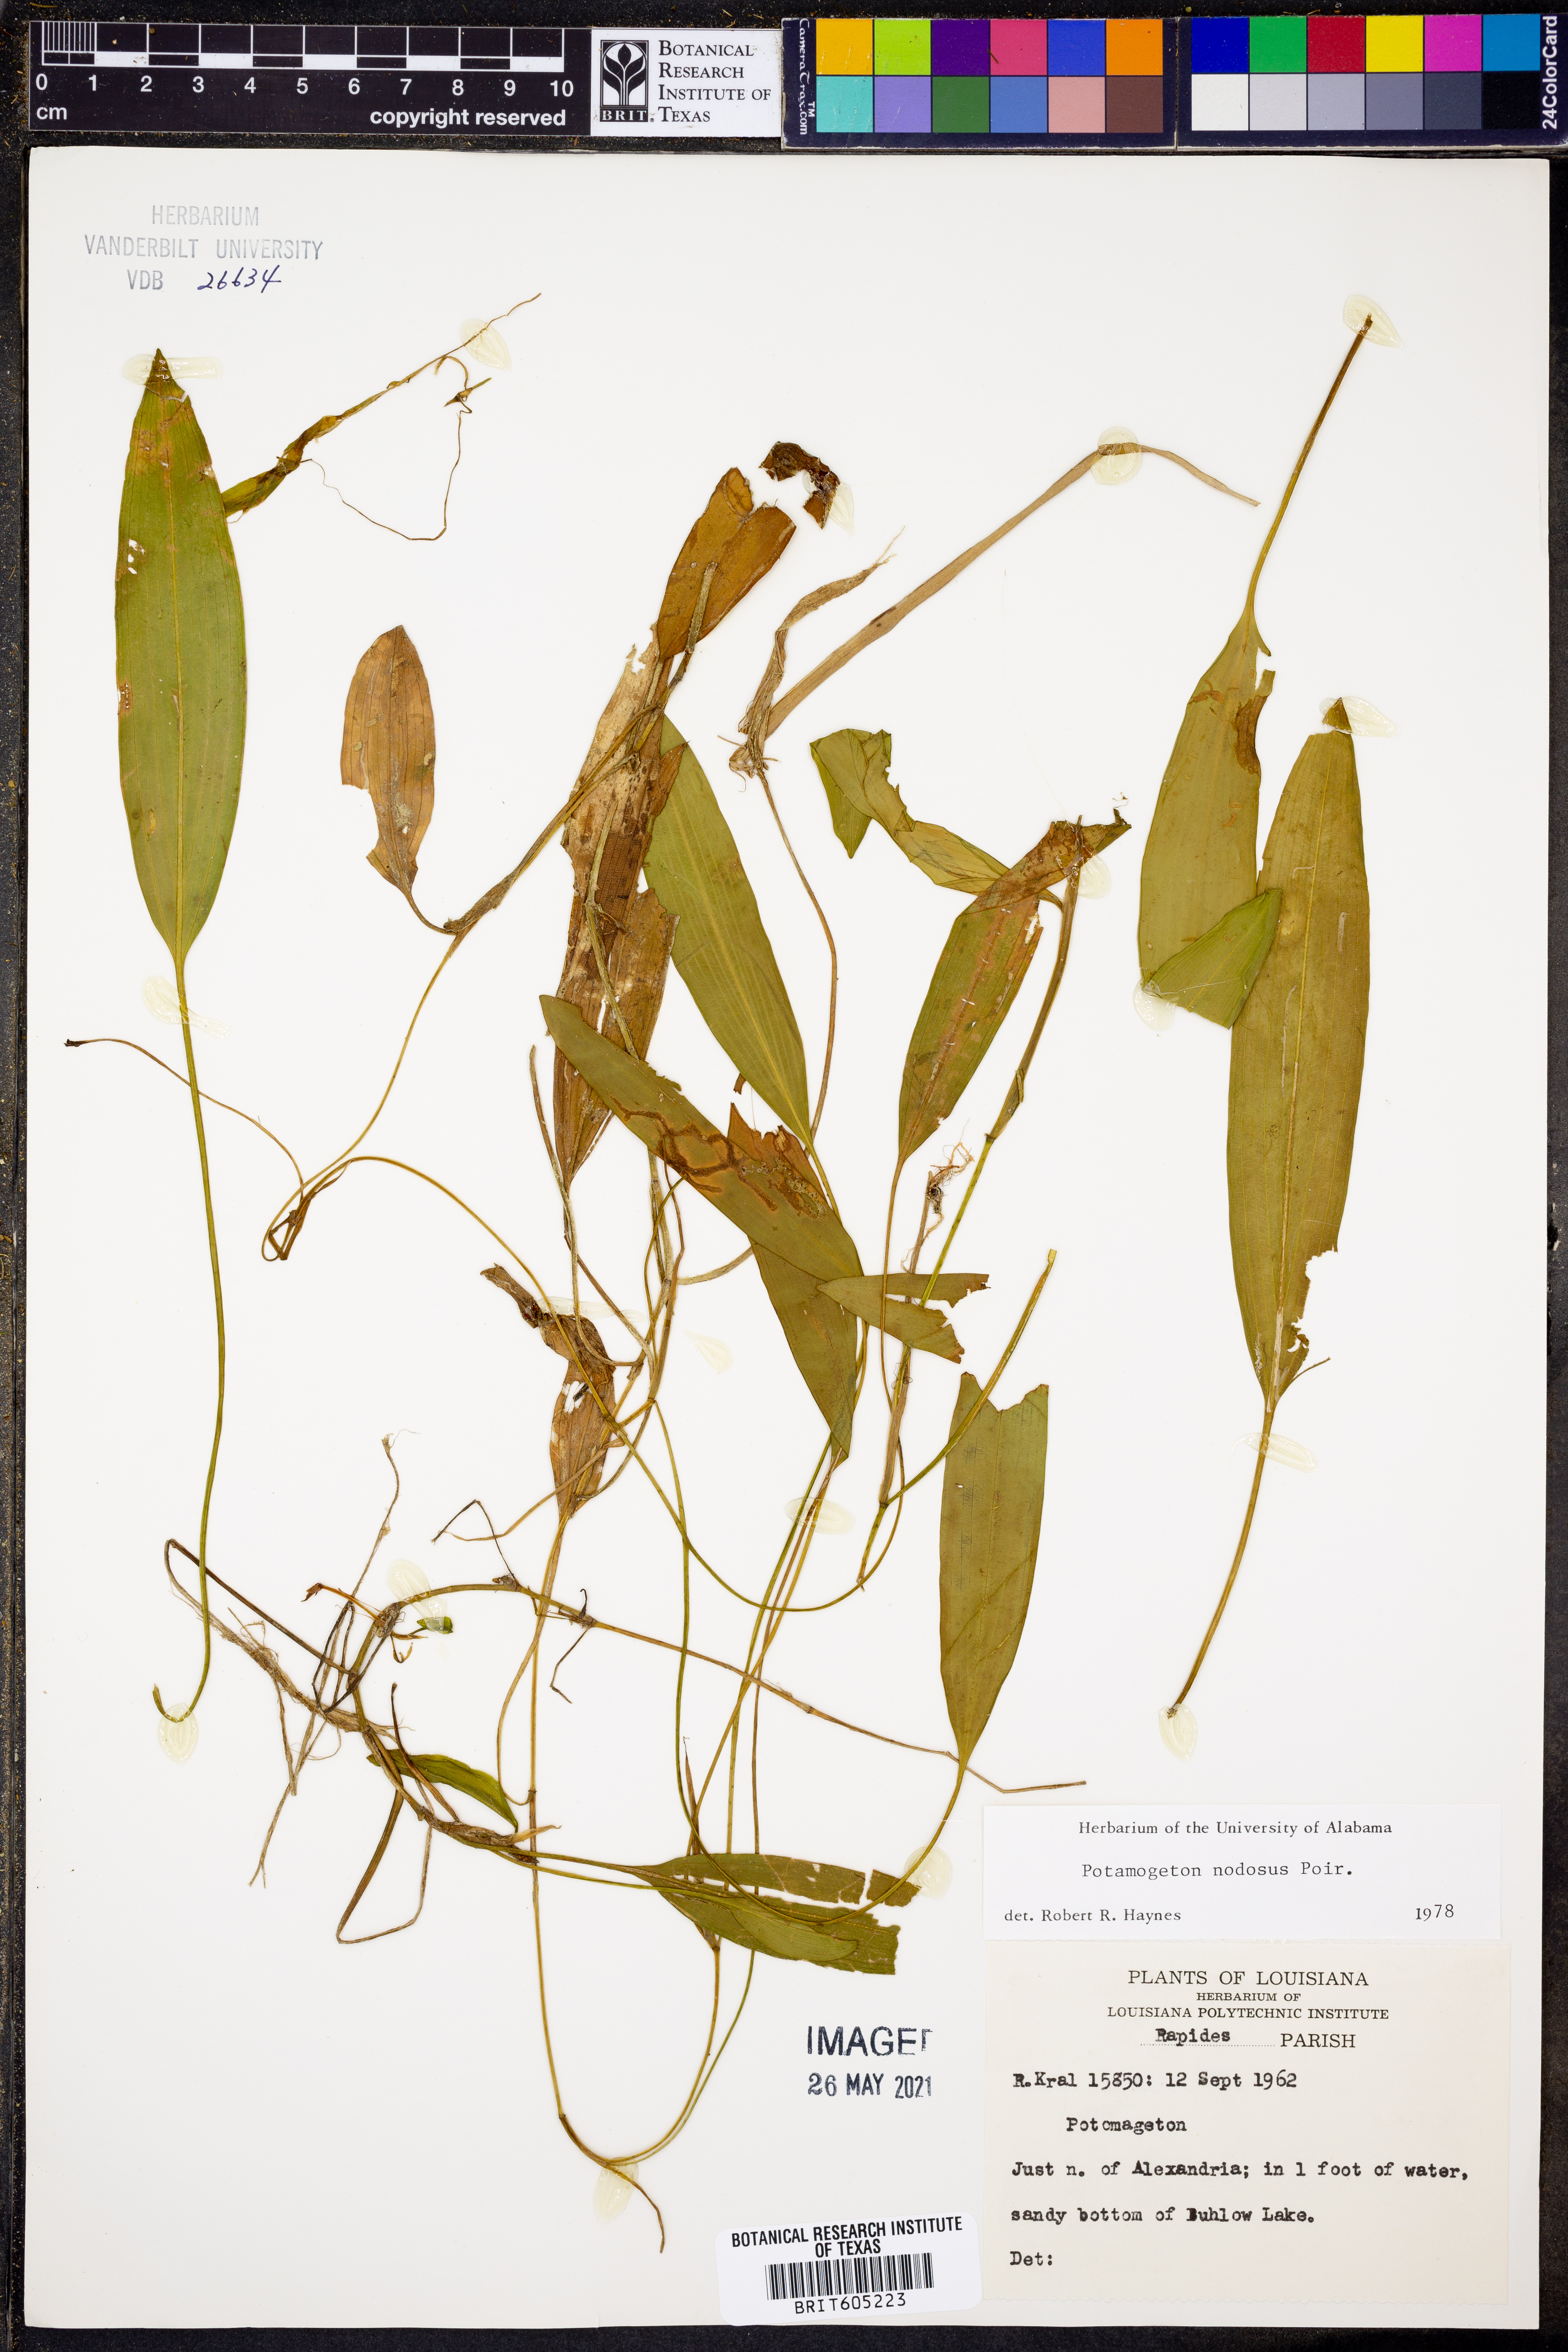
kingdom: Plantae
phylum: Tracheophyta
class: Liliopsida
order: Alismatales
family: Potamogetonaceae
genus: Potamogeton
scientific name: Potamogeton nodosus
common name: Loddon pondweed
